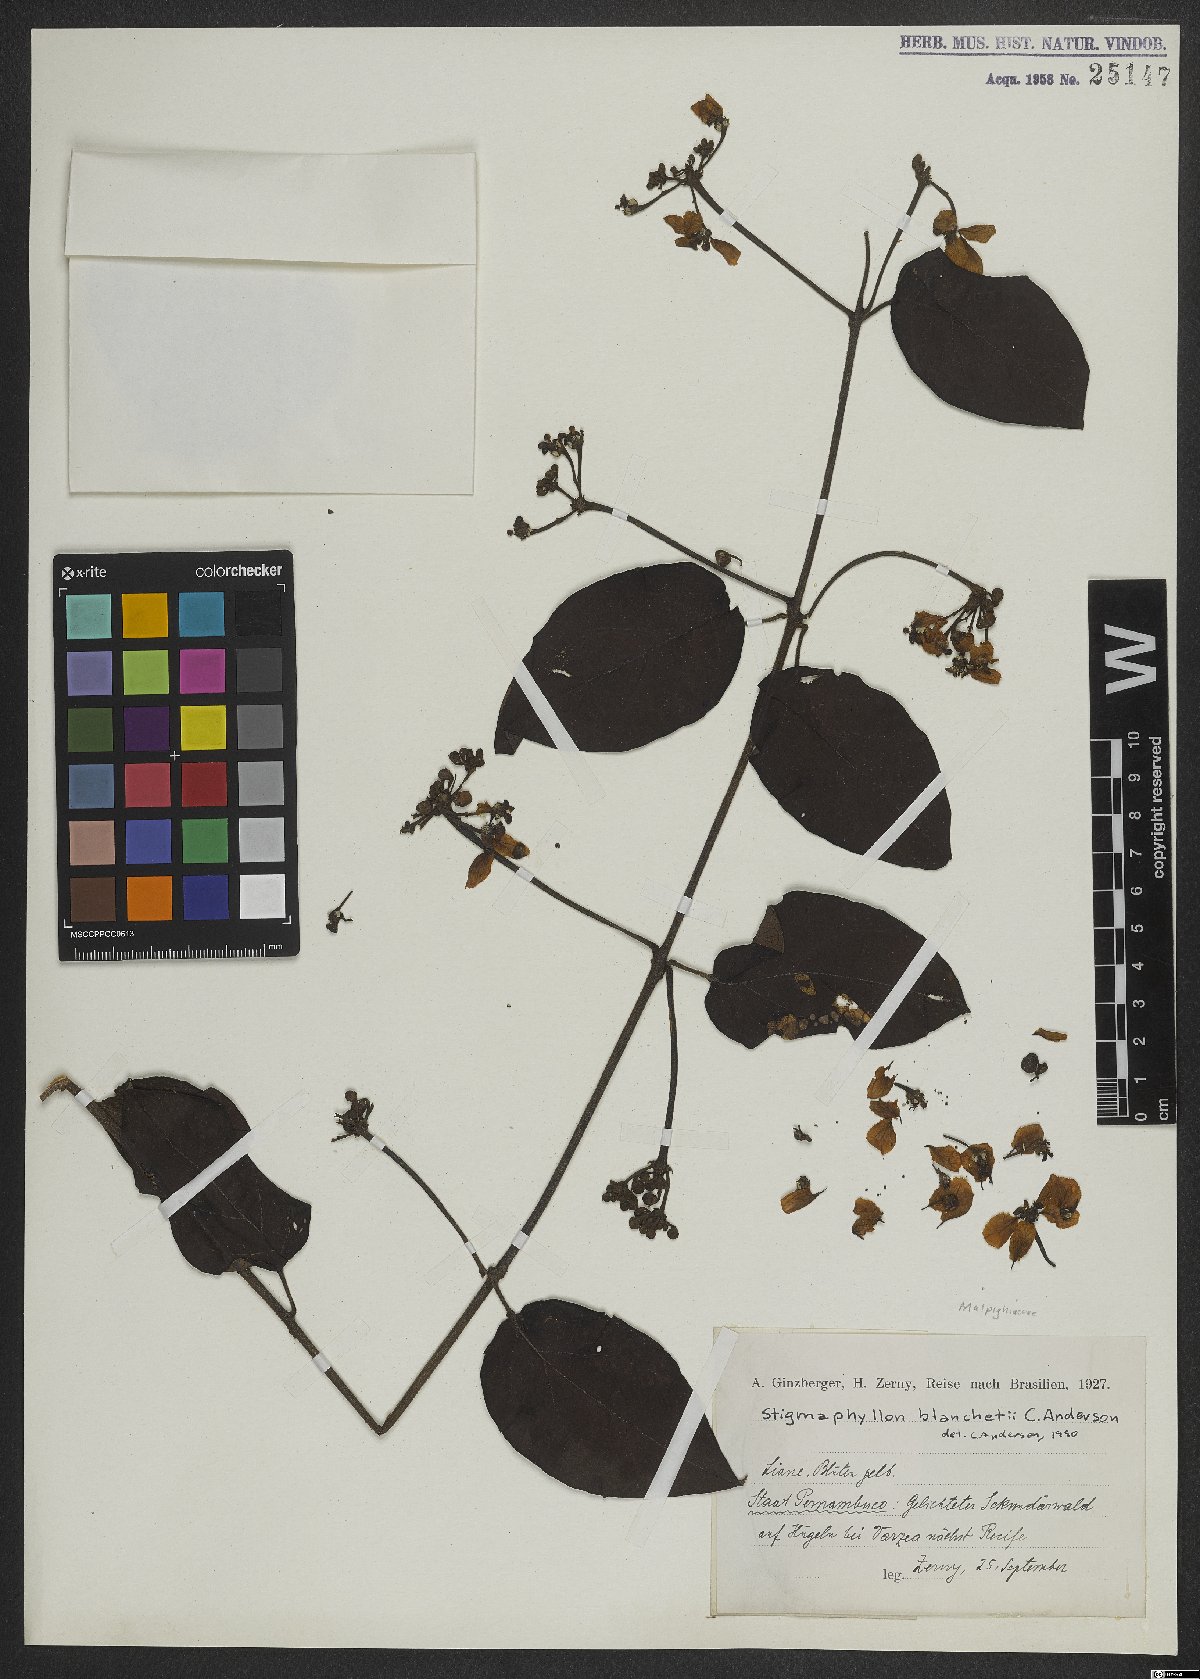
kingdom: Plantae
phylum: Tracheophyta
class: Magnoliopsida
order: Malpighiales
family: Malpighiaceae
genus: Stigmaphyllon
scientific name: Stigmaphyllon blanchetii
